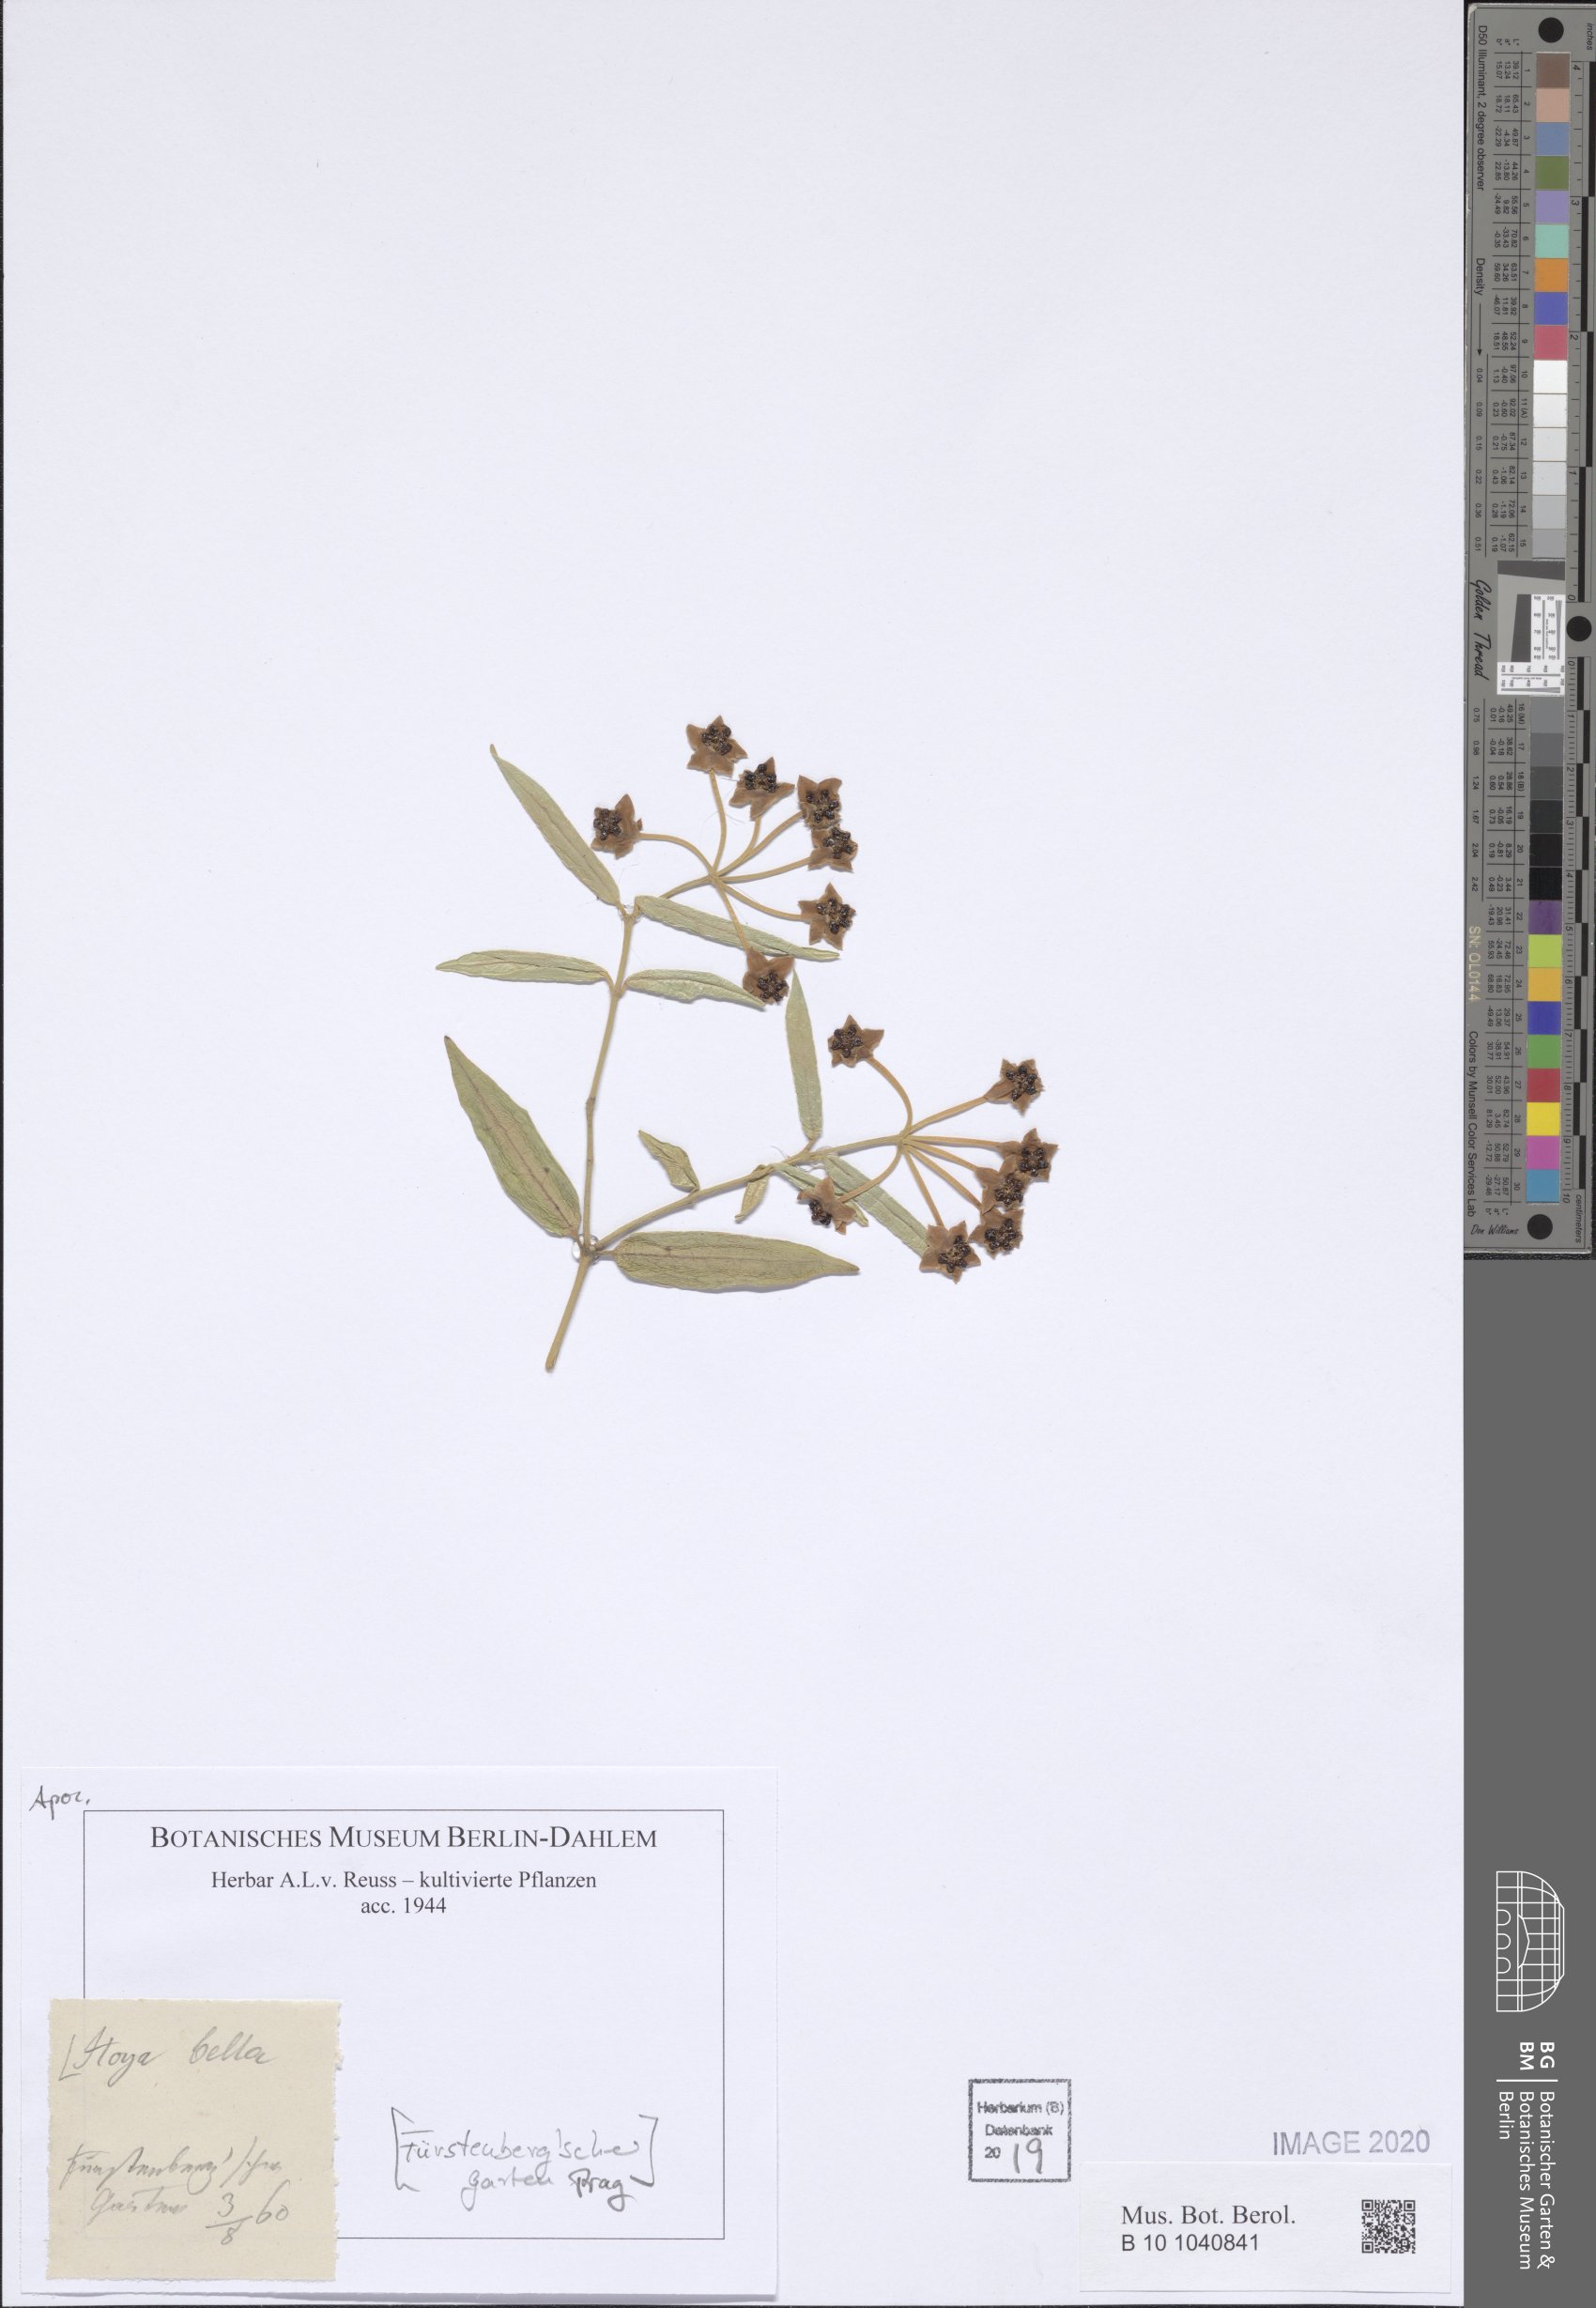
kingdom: Plantae
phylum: Tracheophyta
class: Magnoliopsida
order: Gentianales
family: Apocynaceae
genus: Hoya
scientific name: Hoya bella
